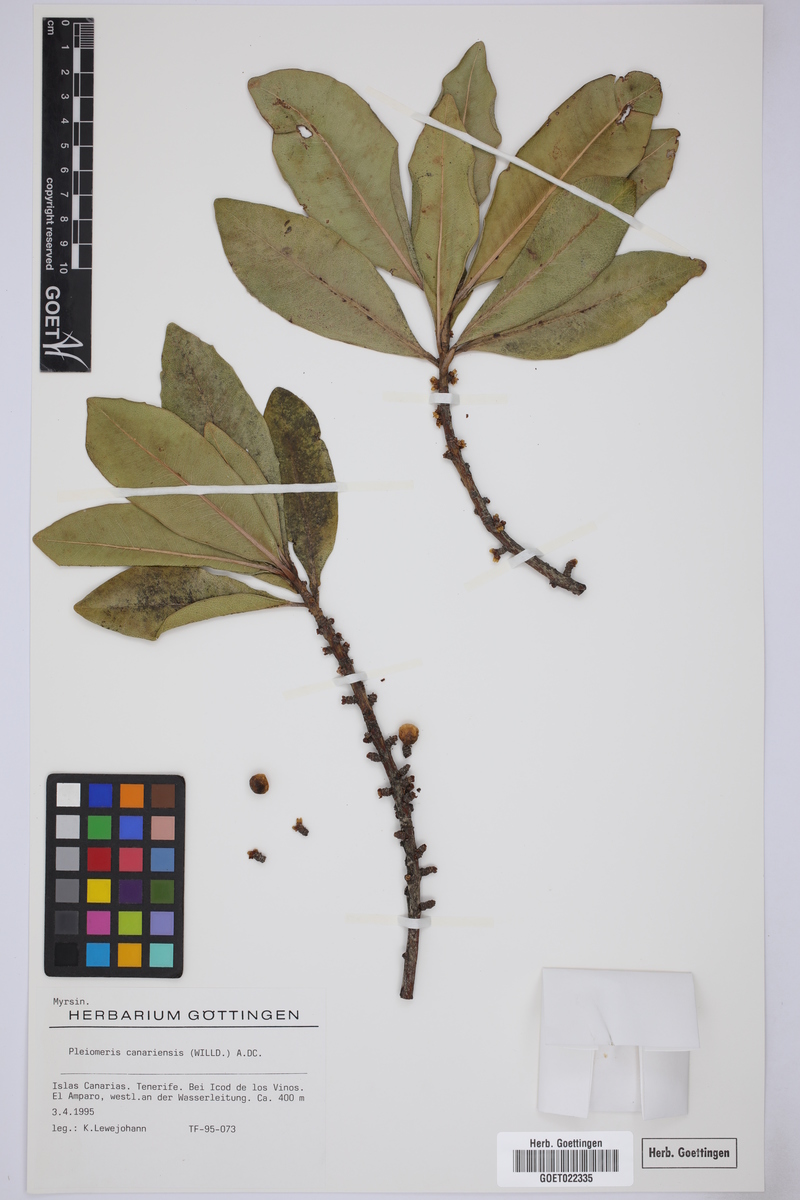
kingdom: Plantae
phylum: Tracheophyta
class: Magnoliopsida
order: Ericales
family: Primulaceae
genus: Pleiomeris
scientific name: Pleiomeris canariensis
